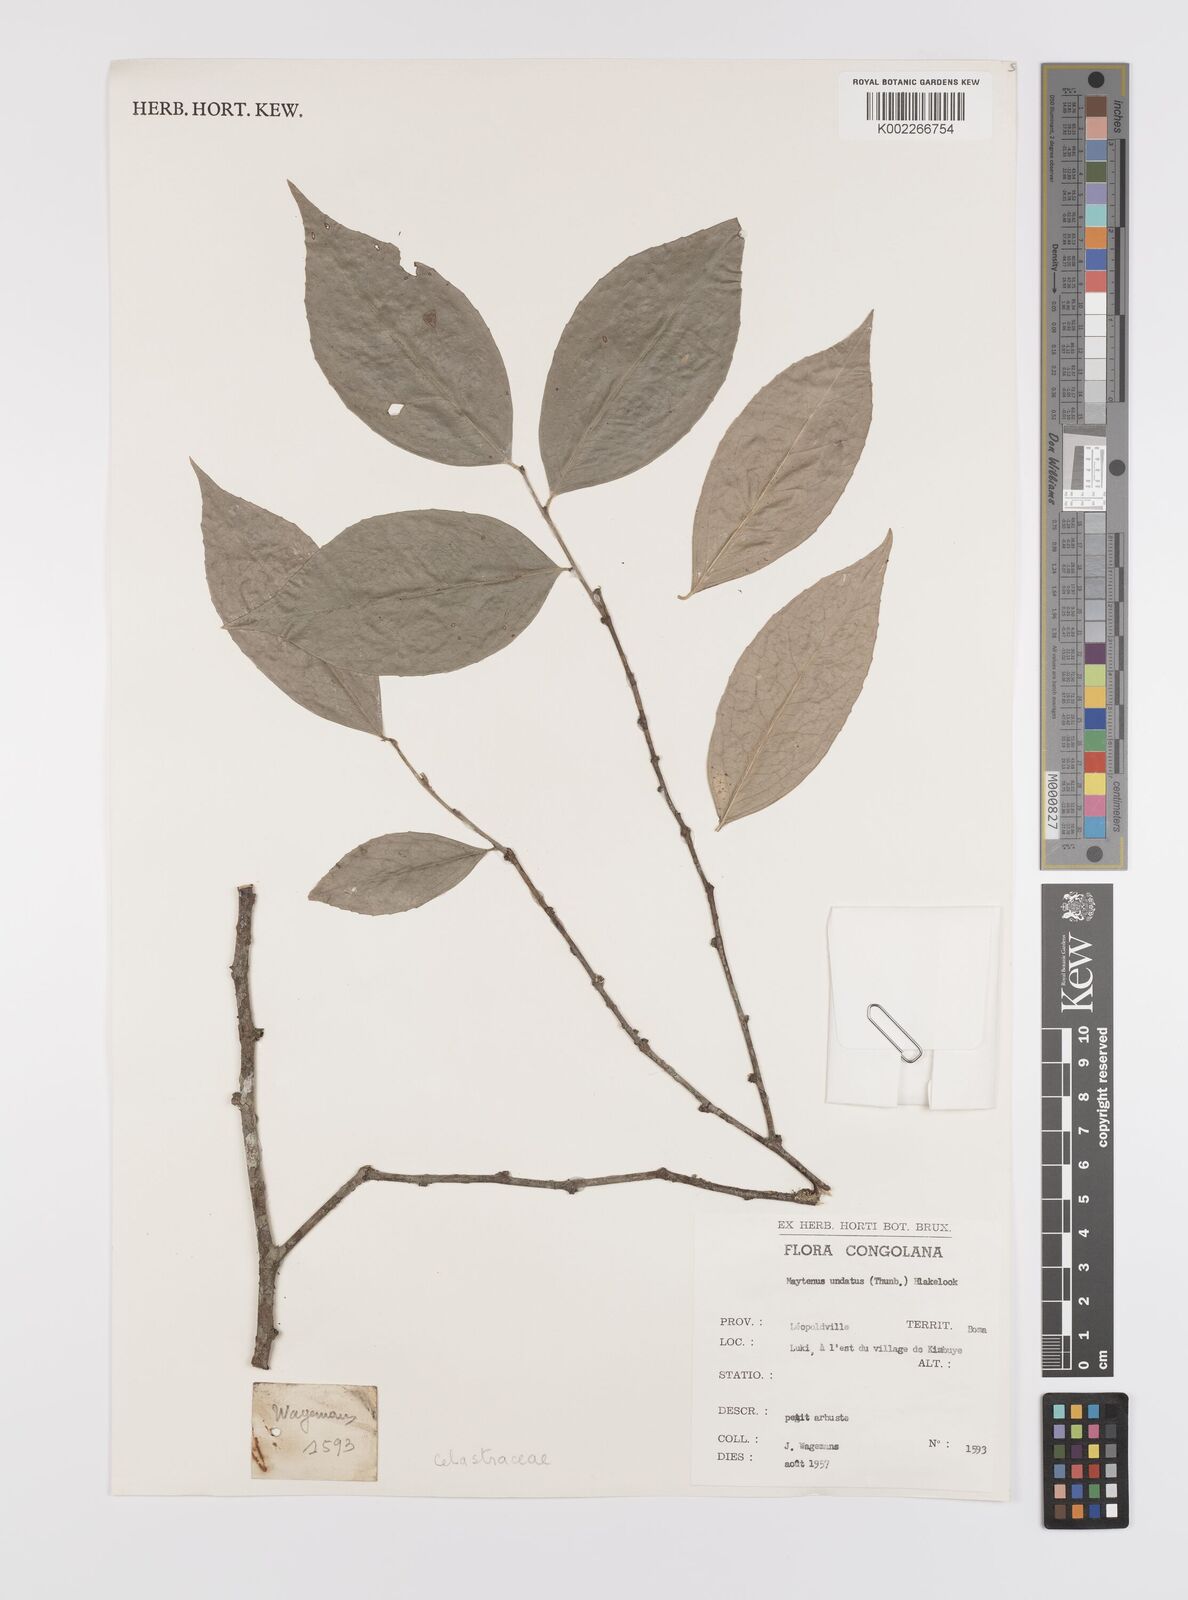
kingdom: Plantae
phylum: Tracheophyta
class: Magnoliopsida
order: Celastrales
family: Celastraceae
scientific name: Celastraceae
